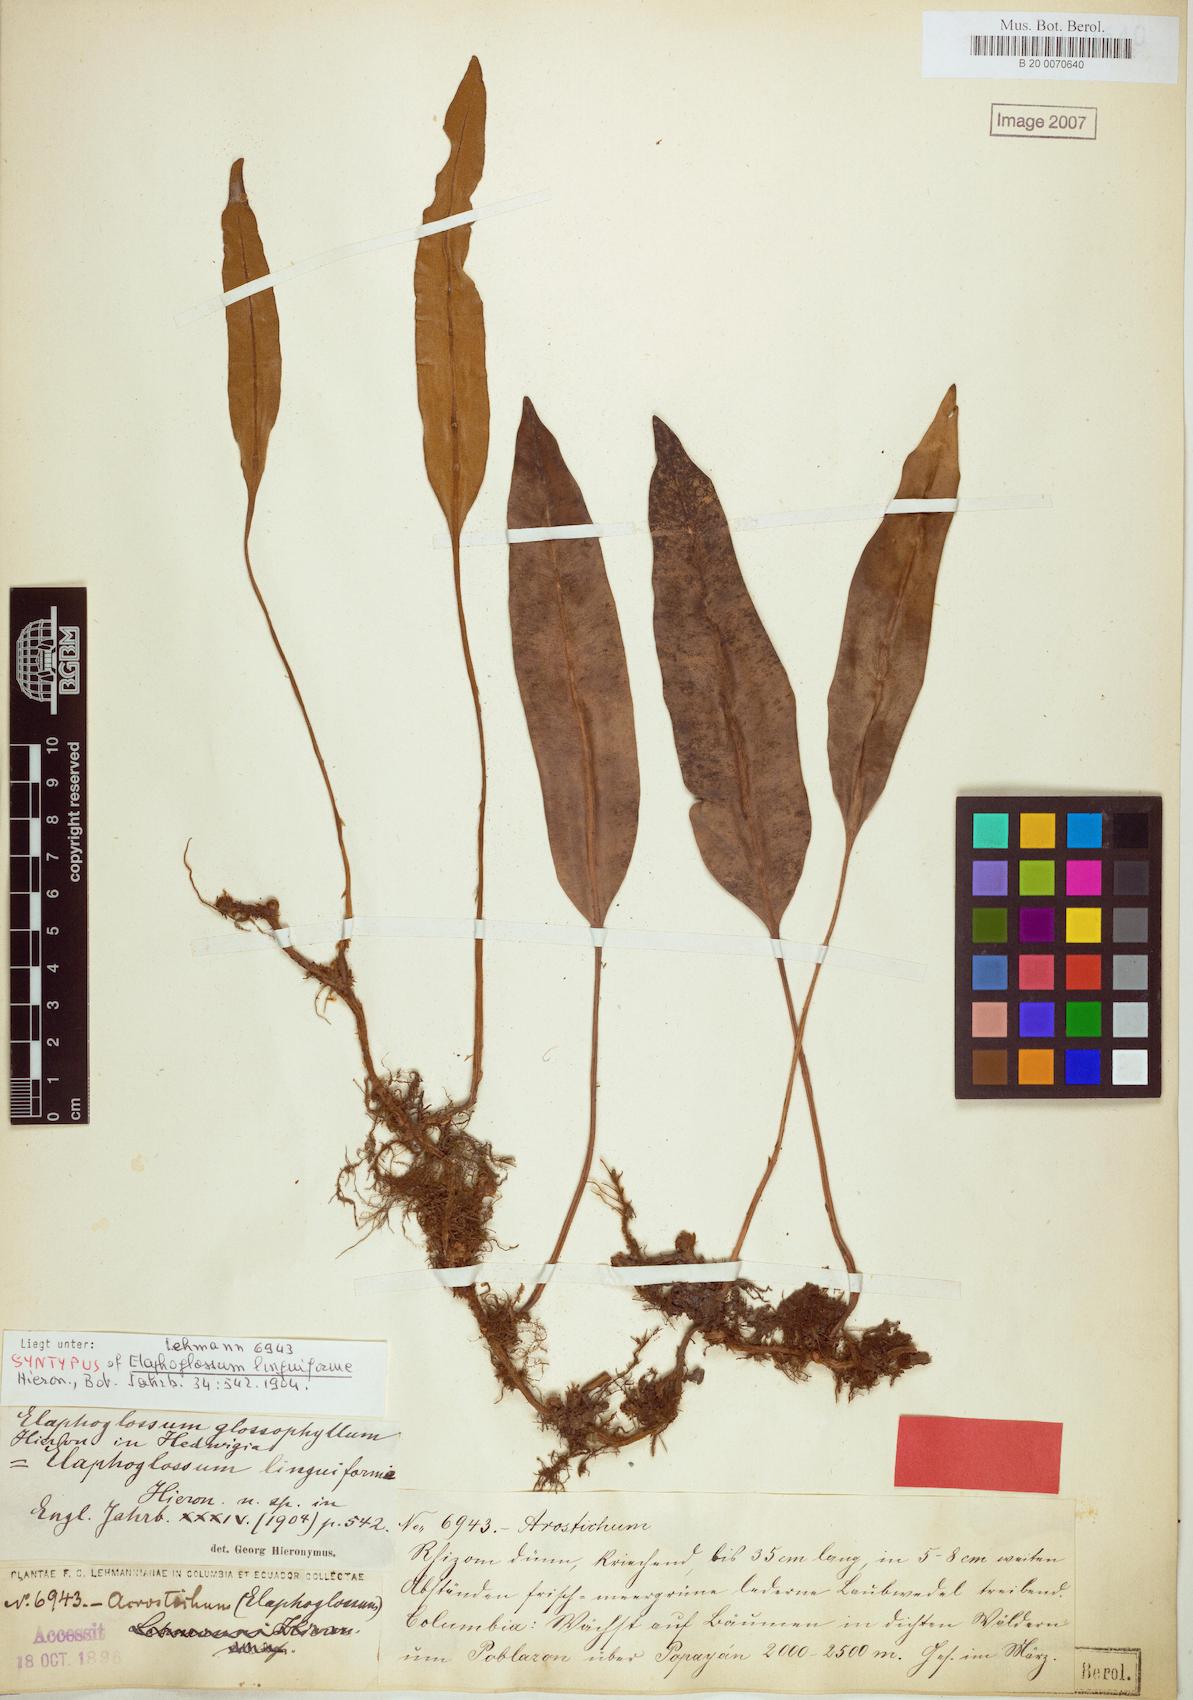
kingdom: Plantae
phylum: Tracheophyta
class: Polypodiopsida
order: Polypodiales
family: Dryopteridaceae
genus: Elaphoglossum
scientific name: Elaphoglossum glossophyllum
